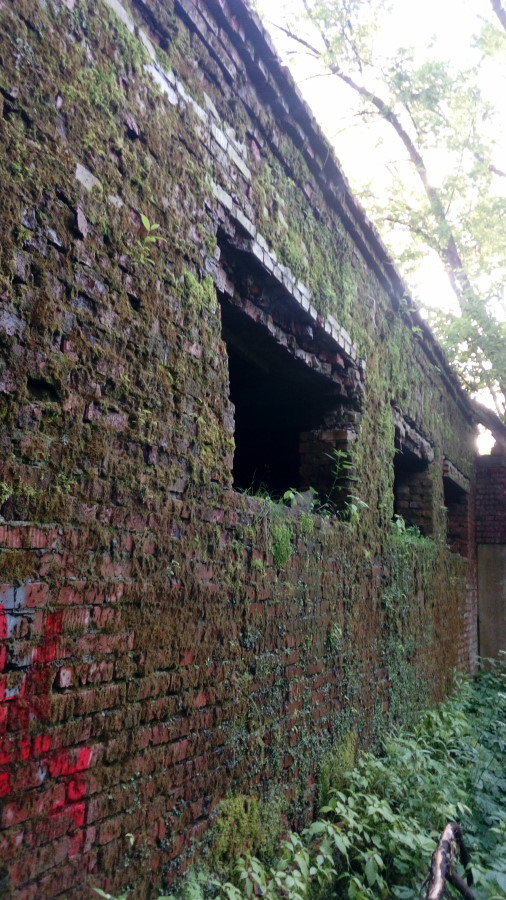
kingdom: Plantae
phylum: Marchantiophyta
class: Marchantiopsida
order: Marchantiales
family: Marchantiaceae
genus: Marchantia
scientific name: Marchantia polymorpha
